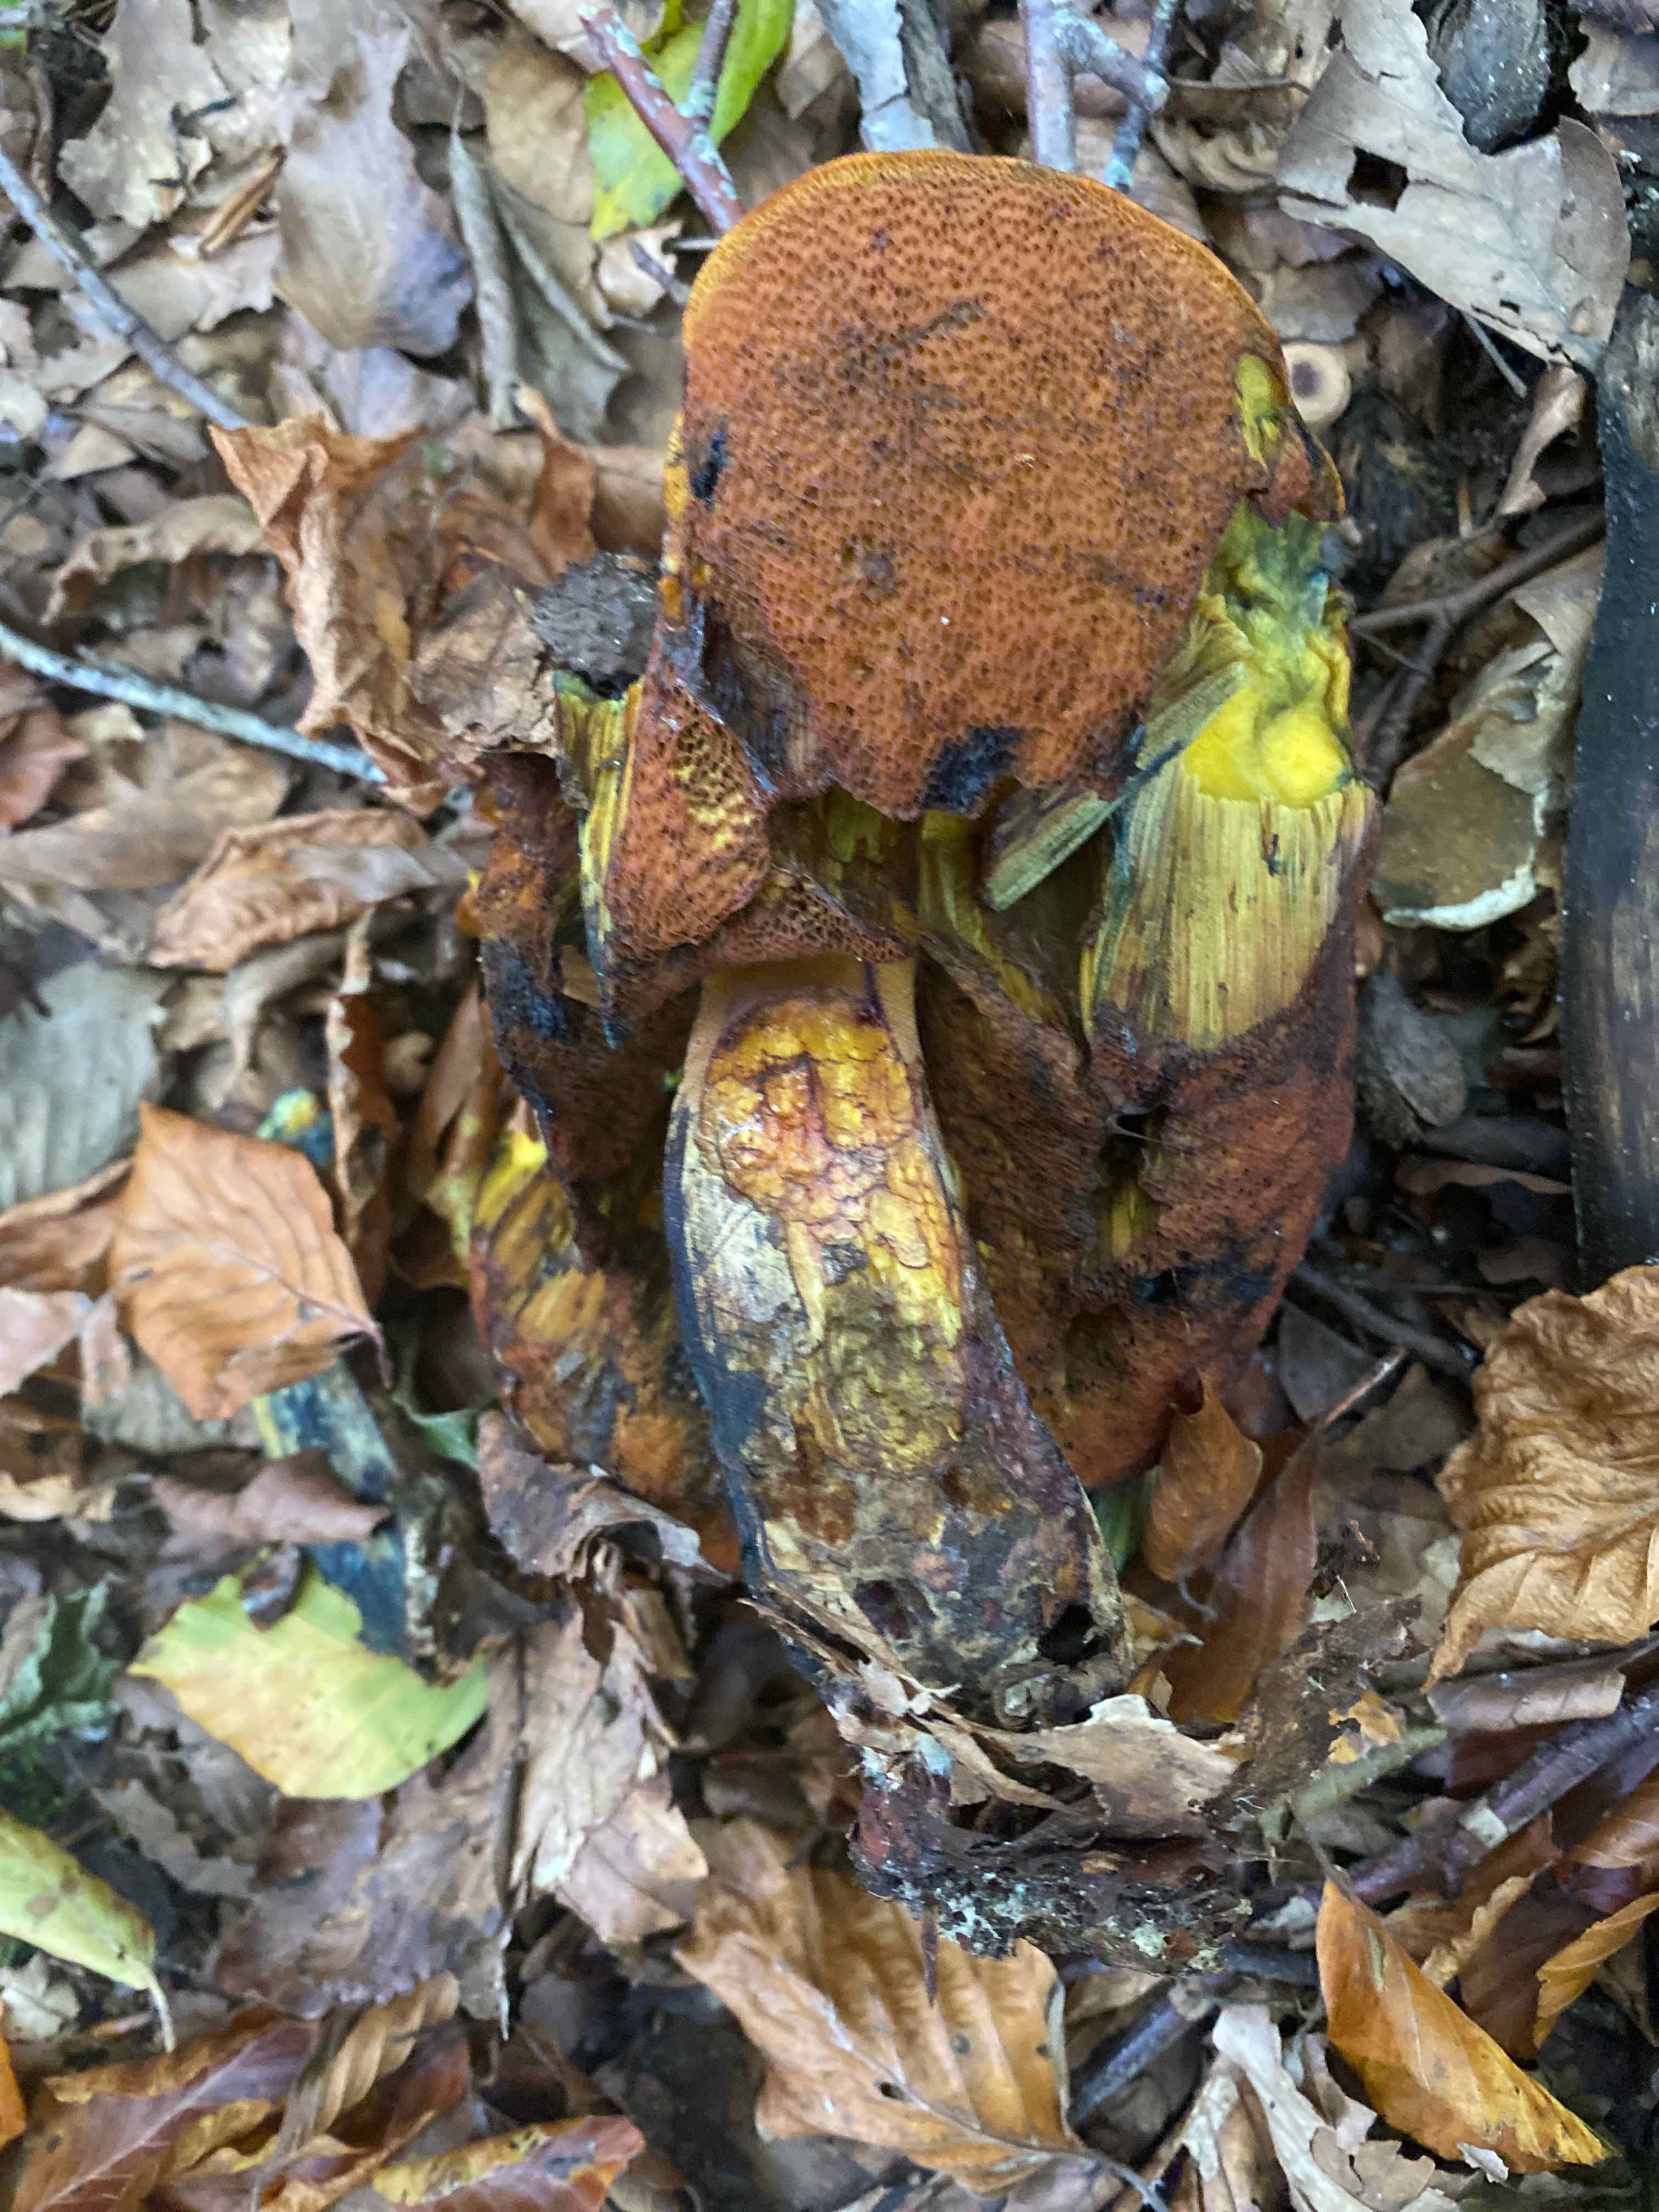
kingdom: Fungi
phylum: Basidiomycota
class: Agaricomycetes
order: Boletales
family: Boletaceae
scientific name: Boletaceae
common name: rørhatfamilien
